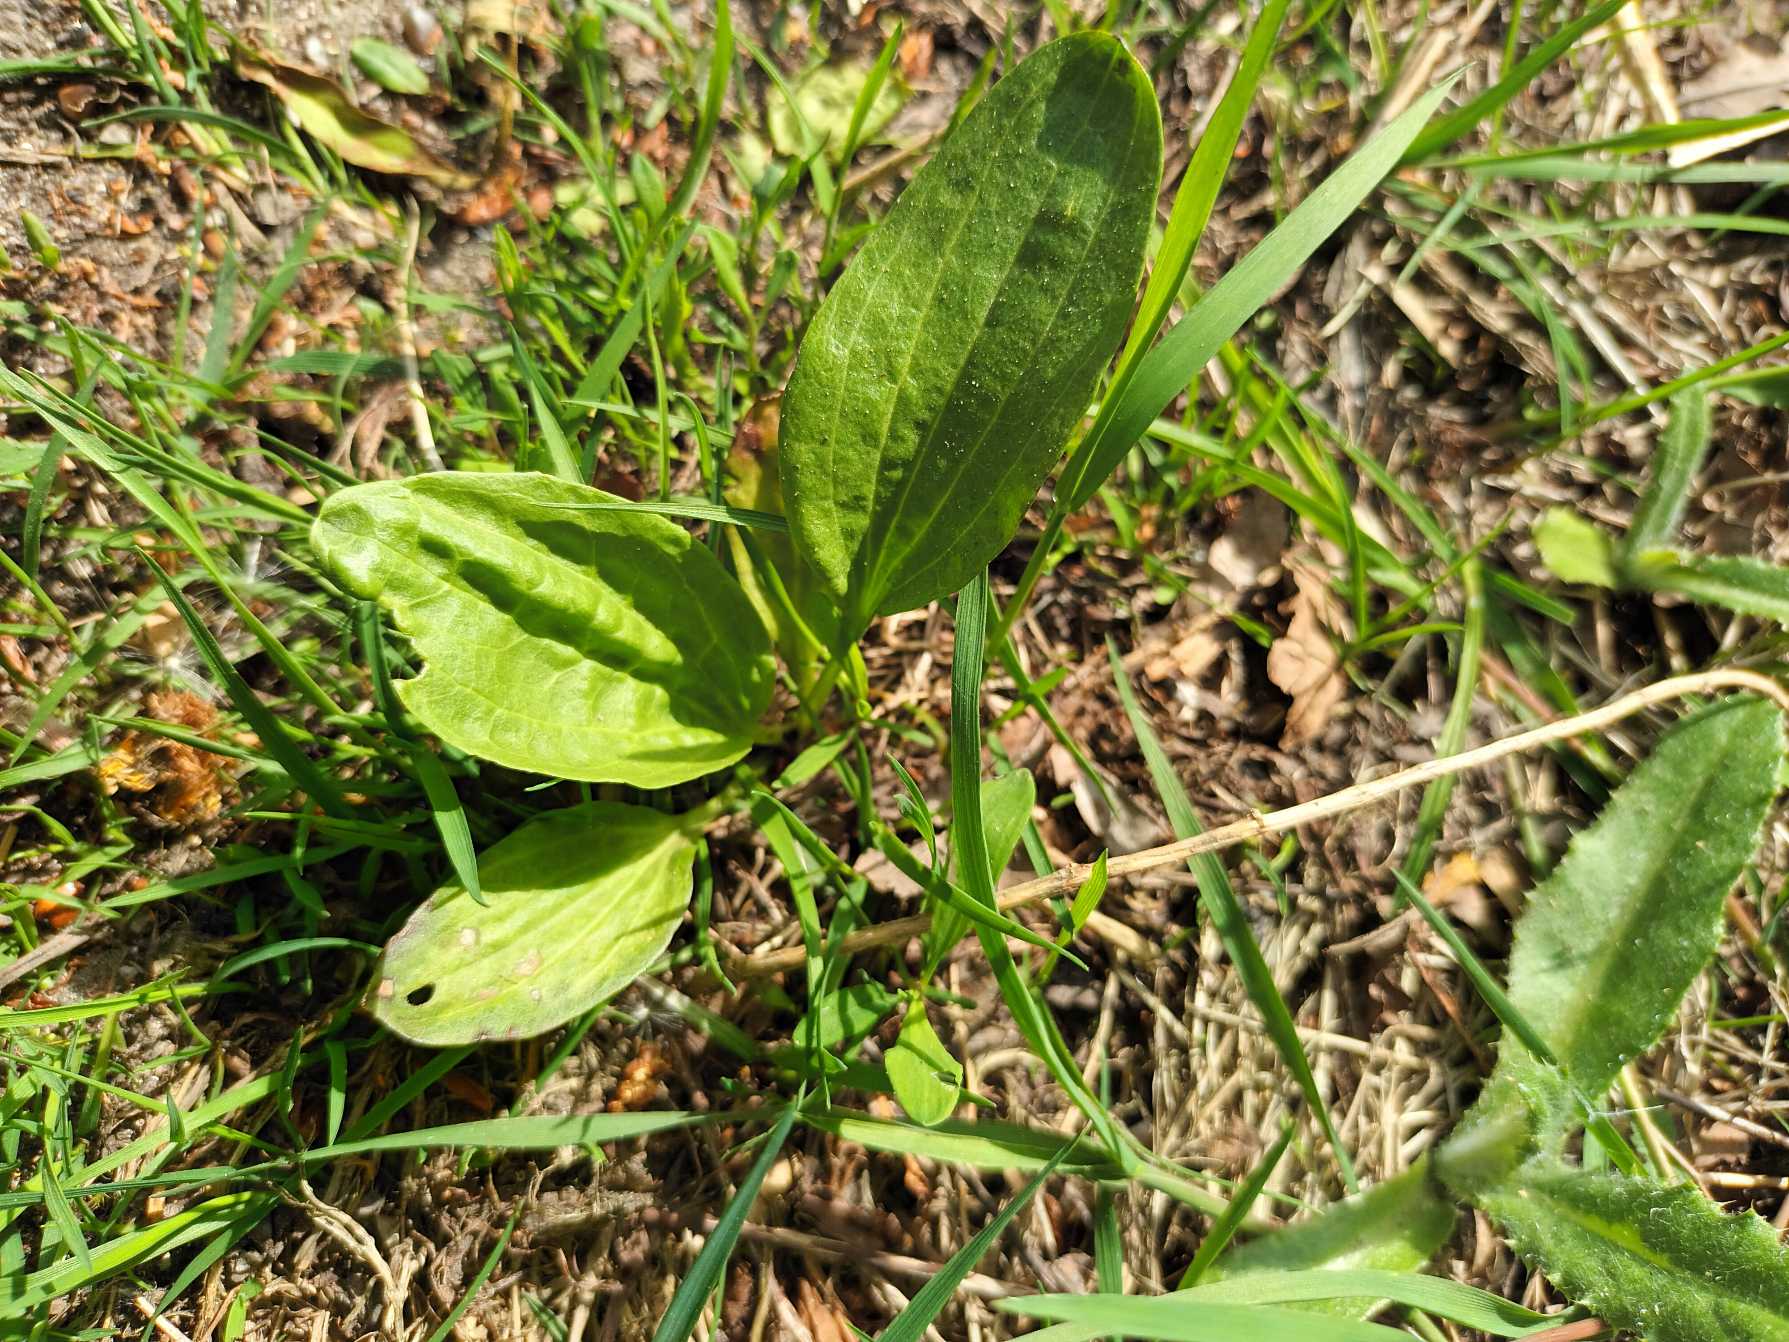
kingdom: Plantae
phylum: Tracheophyta
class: Magnoliopsida
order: Lamiales
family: Plantaginaceae
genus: Plantago
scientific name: Plantago major
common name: Glat vejbred
